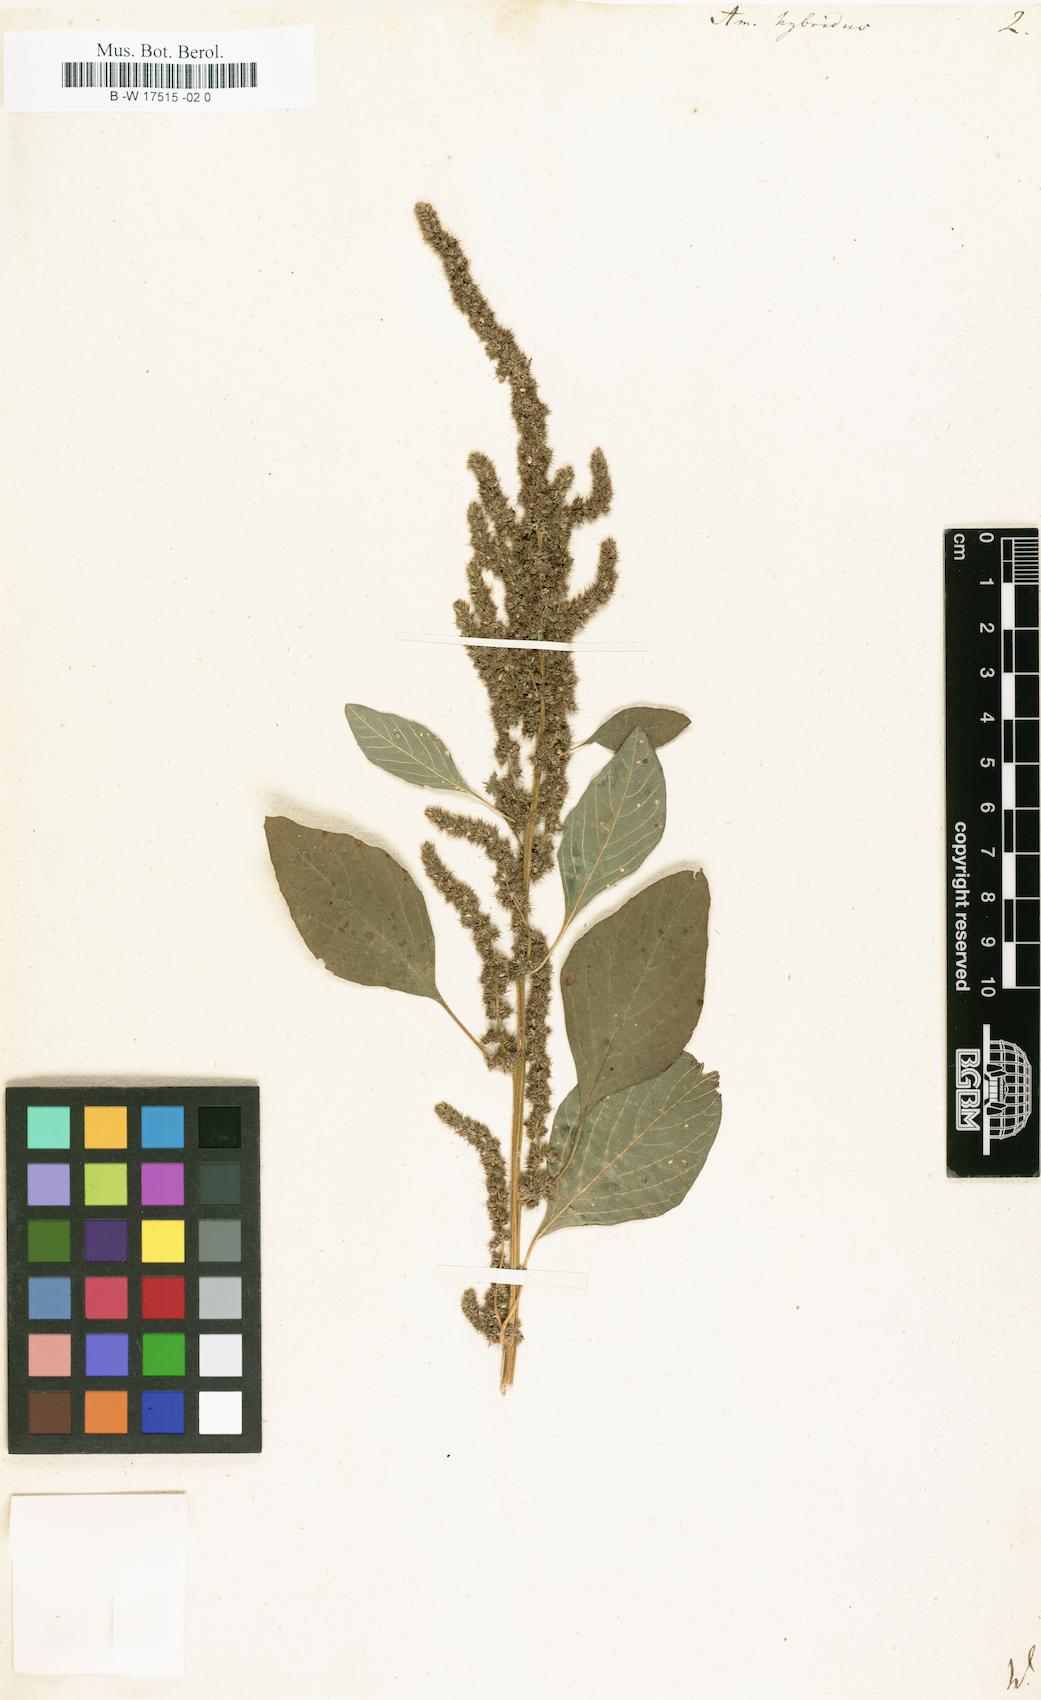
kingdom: Plantae
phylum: Tracheophyta
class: Magnoliopsida
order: Caryophyllales
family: Amaranthaceae
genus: Amaranthus
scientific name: Amaranthus hybridus
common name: Green amaranth
